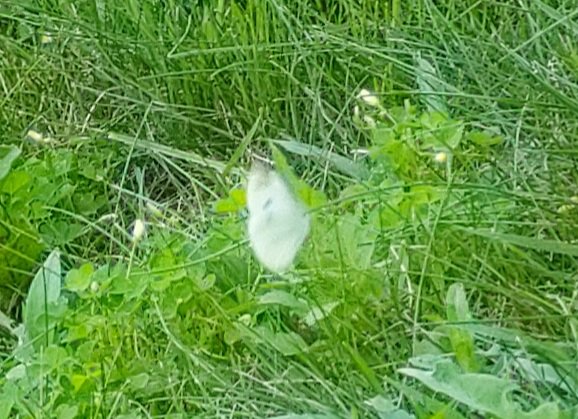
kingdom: Animalia
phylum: Arthropoda
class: Insecta
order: Lepidoptera
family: Pieridae
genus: Pieris
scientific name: Pieris rapae
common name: Cabbage White
